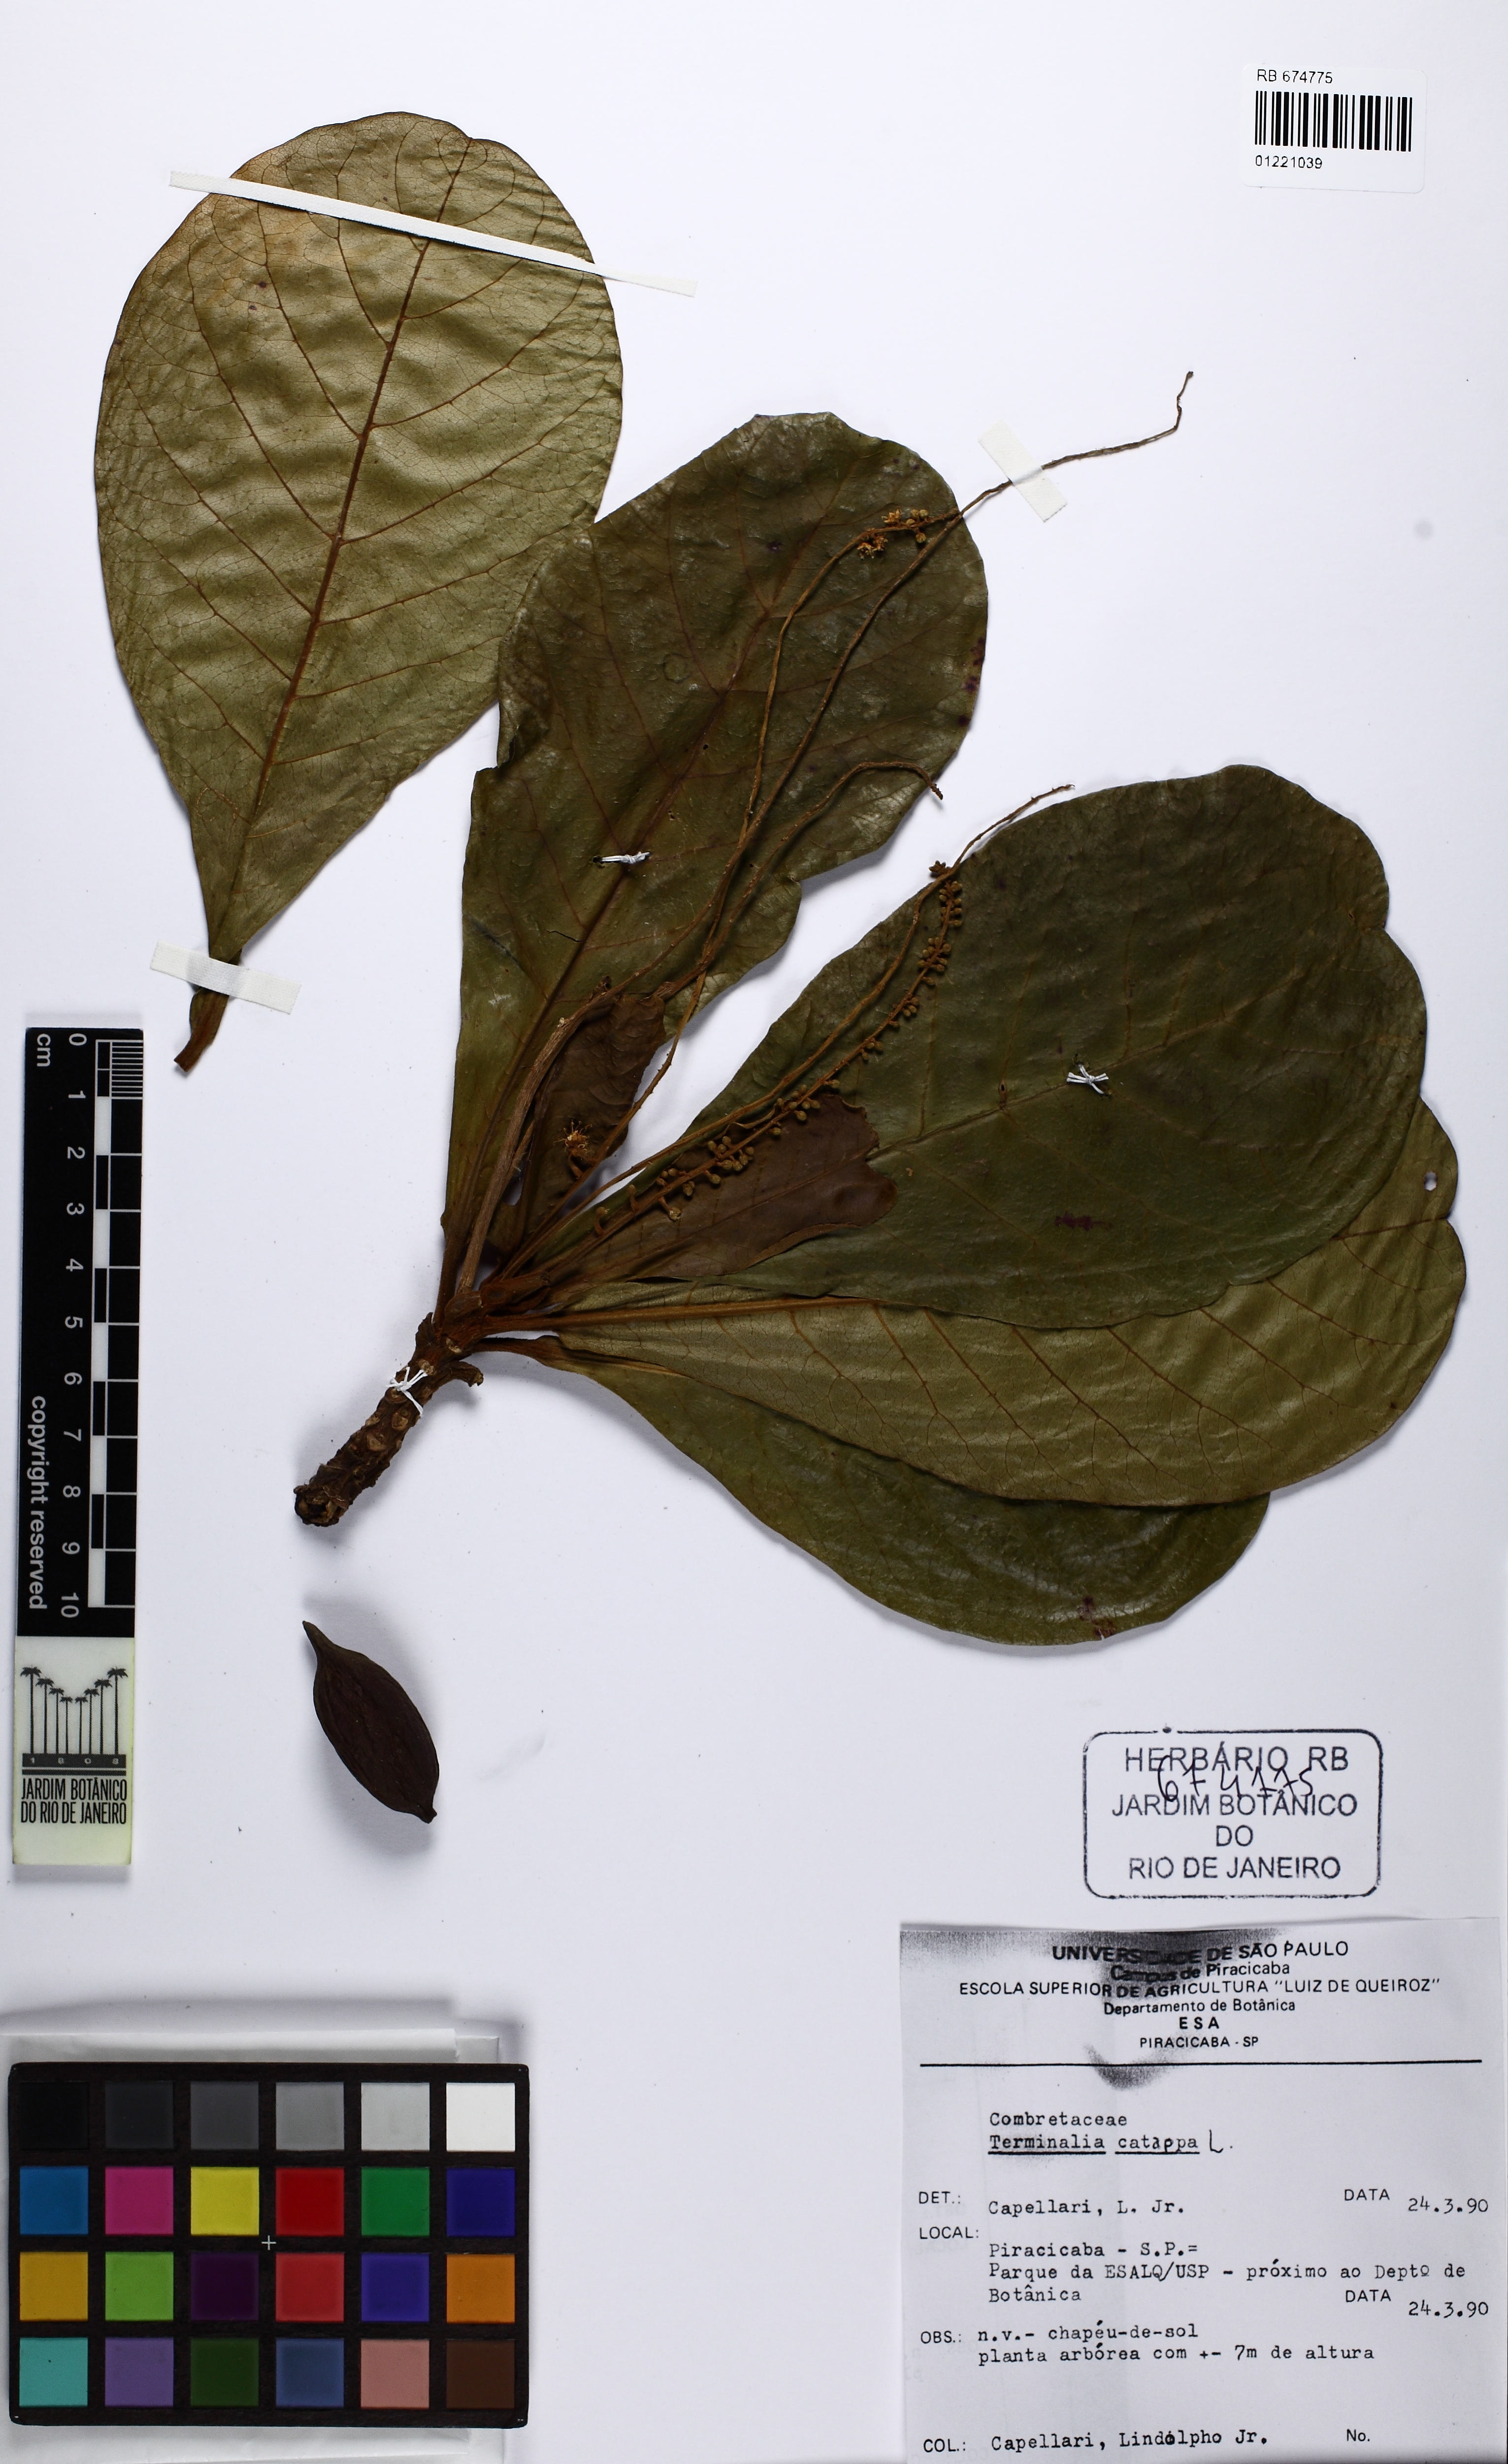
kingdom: Plantae
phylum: Tracheophyta
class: Magnoliopsida
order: Myrtales
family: Combretaceae
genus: Terminalia
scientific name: Terminalia catappa
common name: Tropical almond
